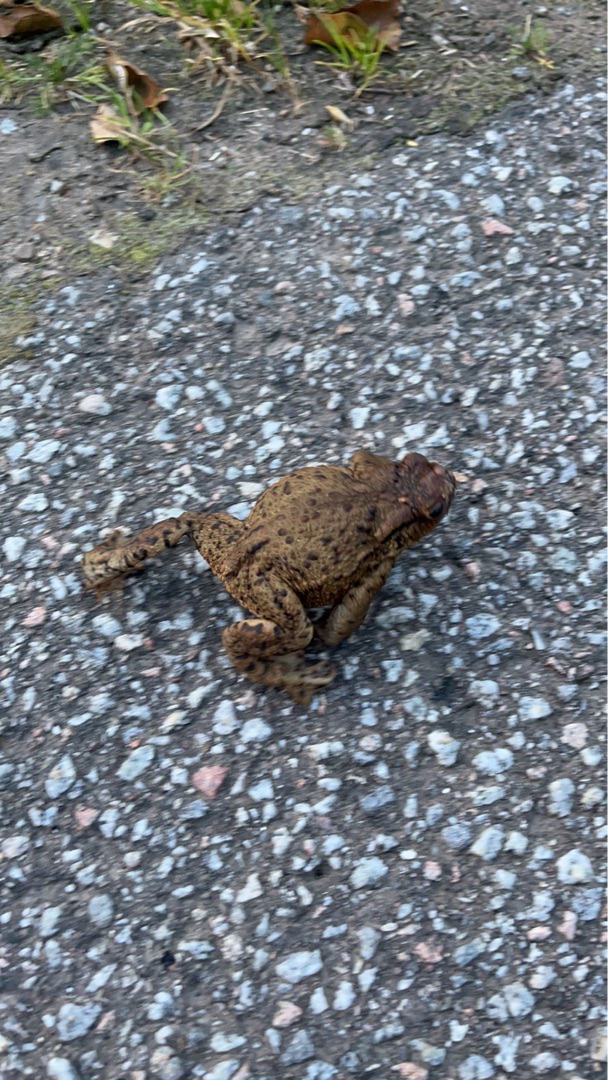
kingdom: Animalia
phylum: Chordata
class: Amphibia
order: Anura
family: Bufonidae
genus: Bufo
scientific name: Bufo bufo
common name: Skrubtudse
